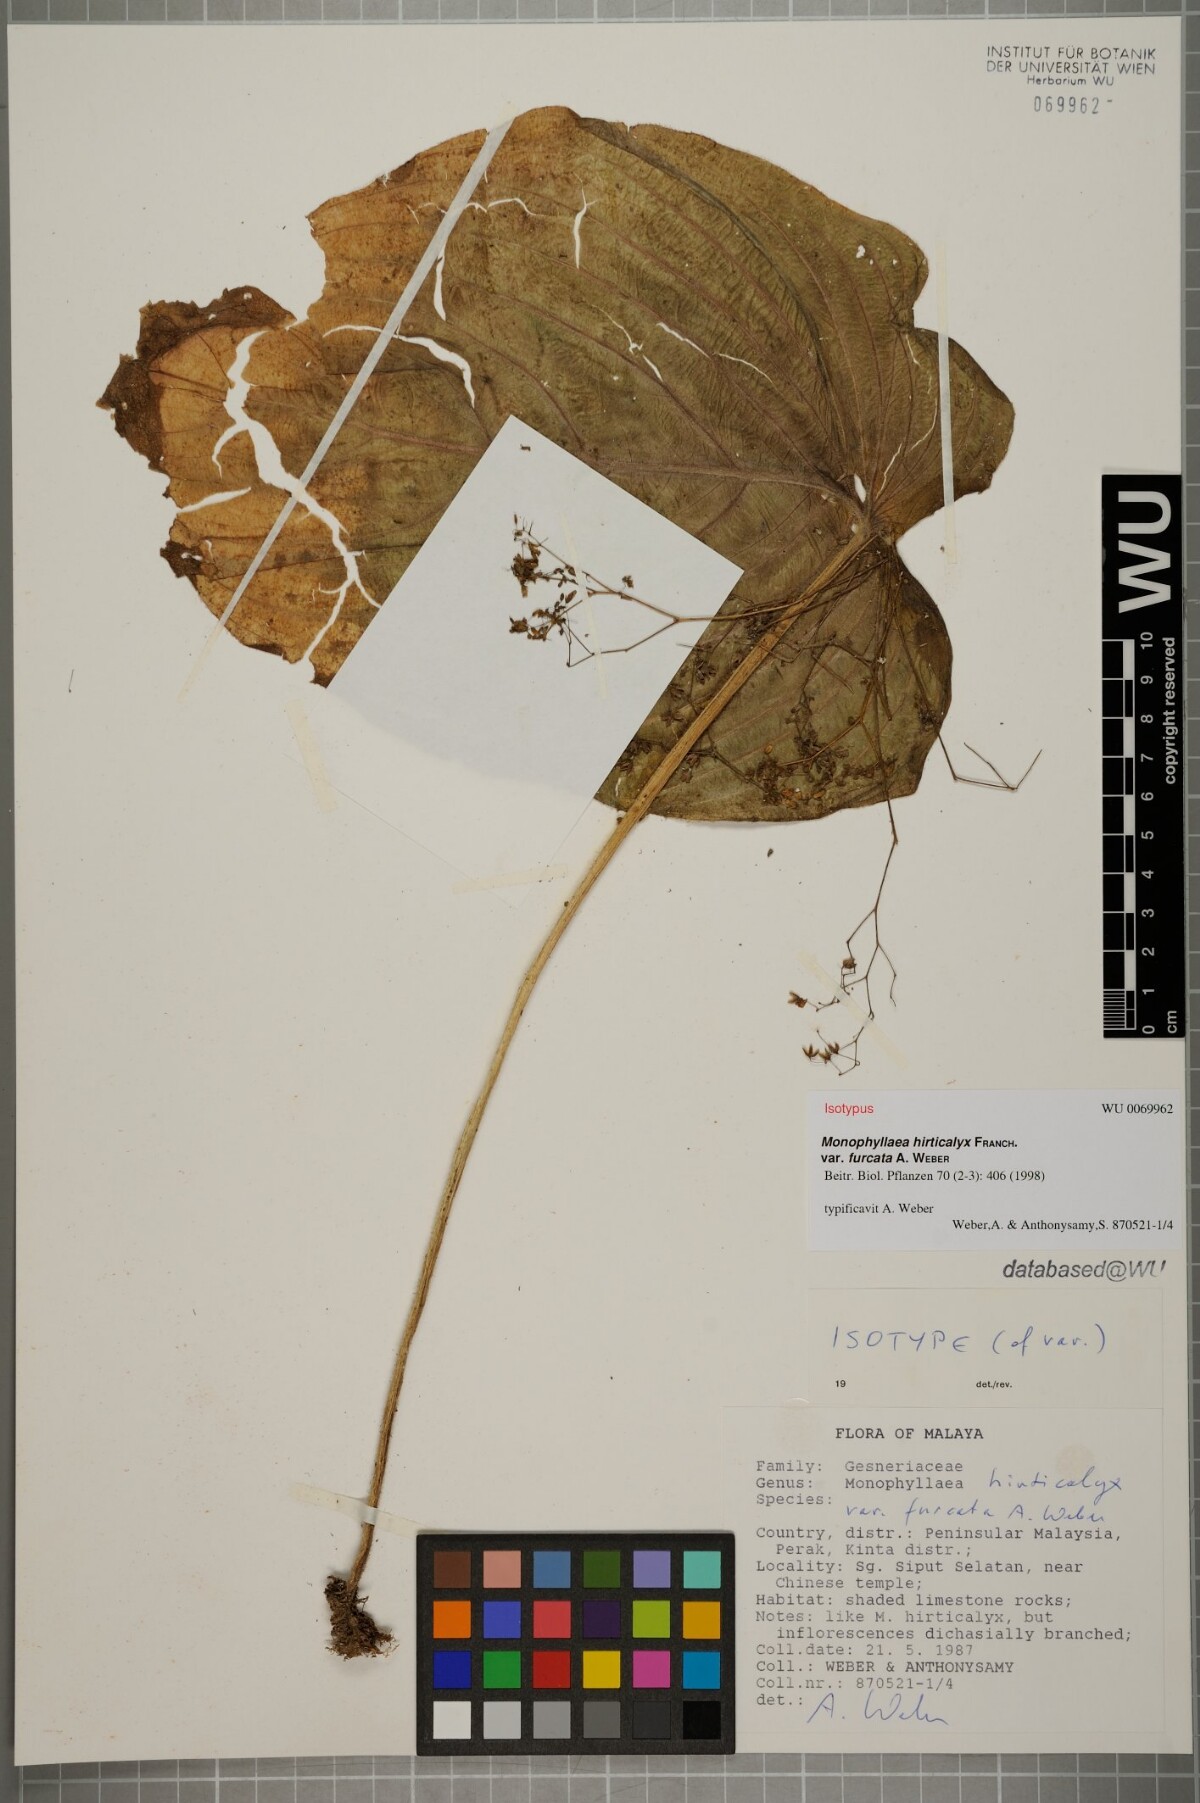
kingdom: Plantae
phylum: Tracheophyta
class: Magnoliopsida
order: Lamiales
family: Gesneriaceae
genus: Monophyllaea
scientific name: Monophyllaea hirticalyx
